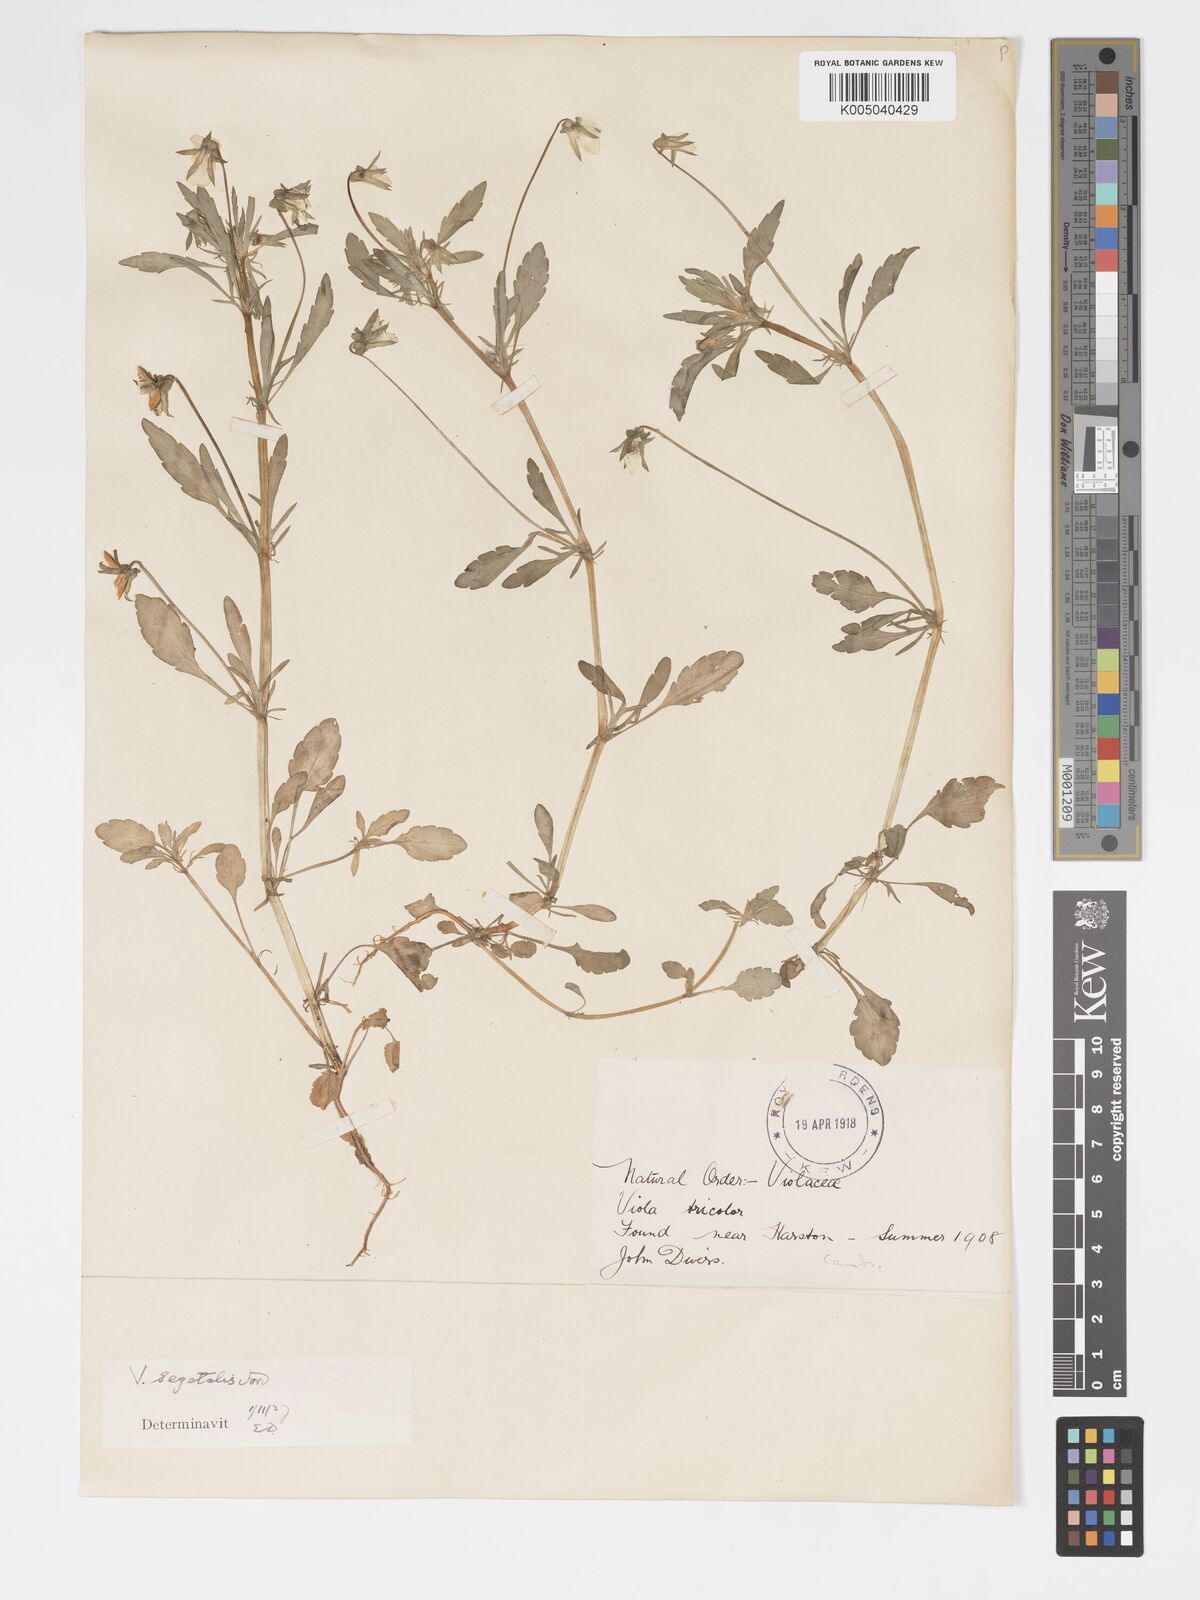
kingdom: Plantae
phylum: Tracheophyta
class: Magnoliopsida
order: Malpighiales
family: Violaceae
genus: Viola
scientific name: Viola arvensis
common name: Field pansy
